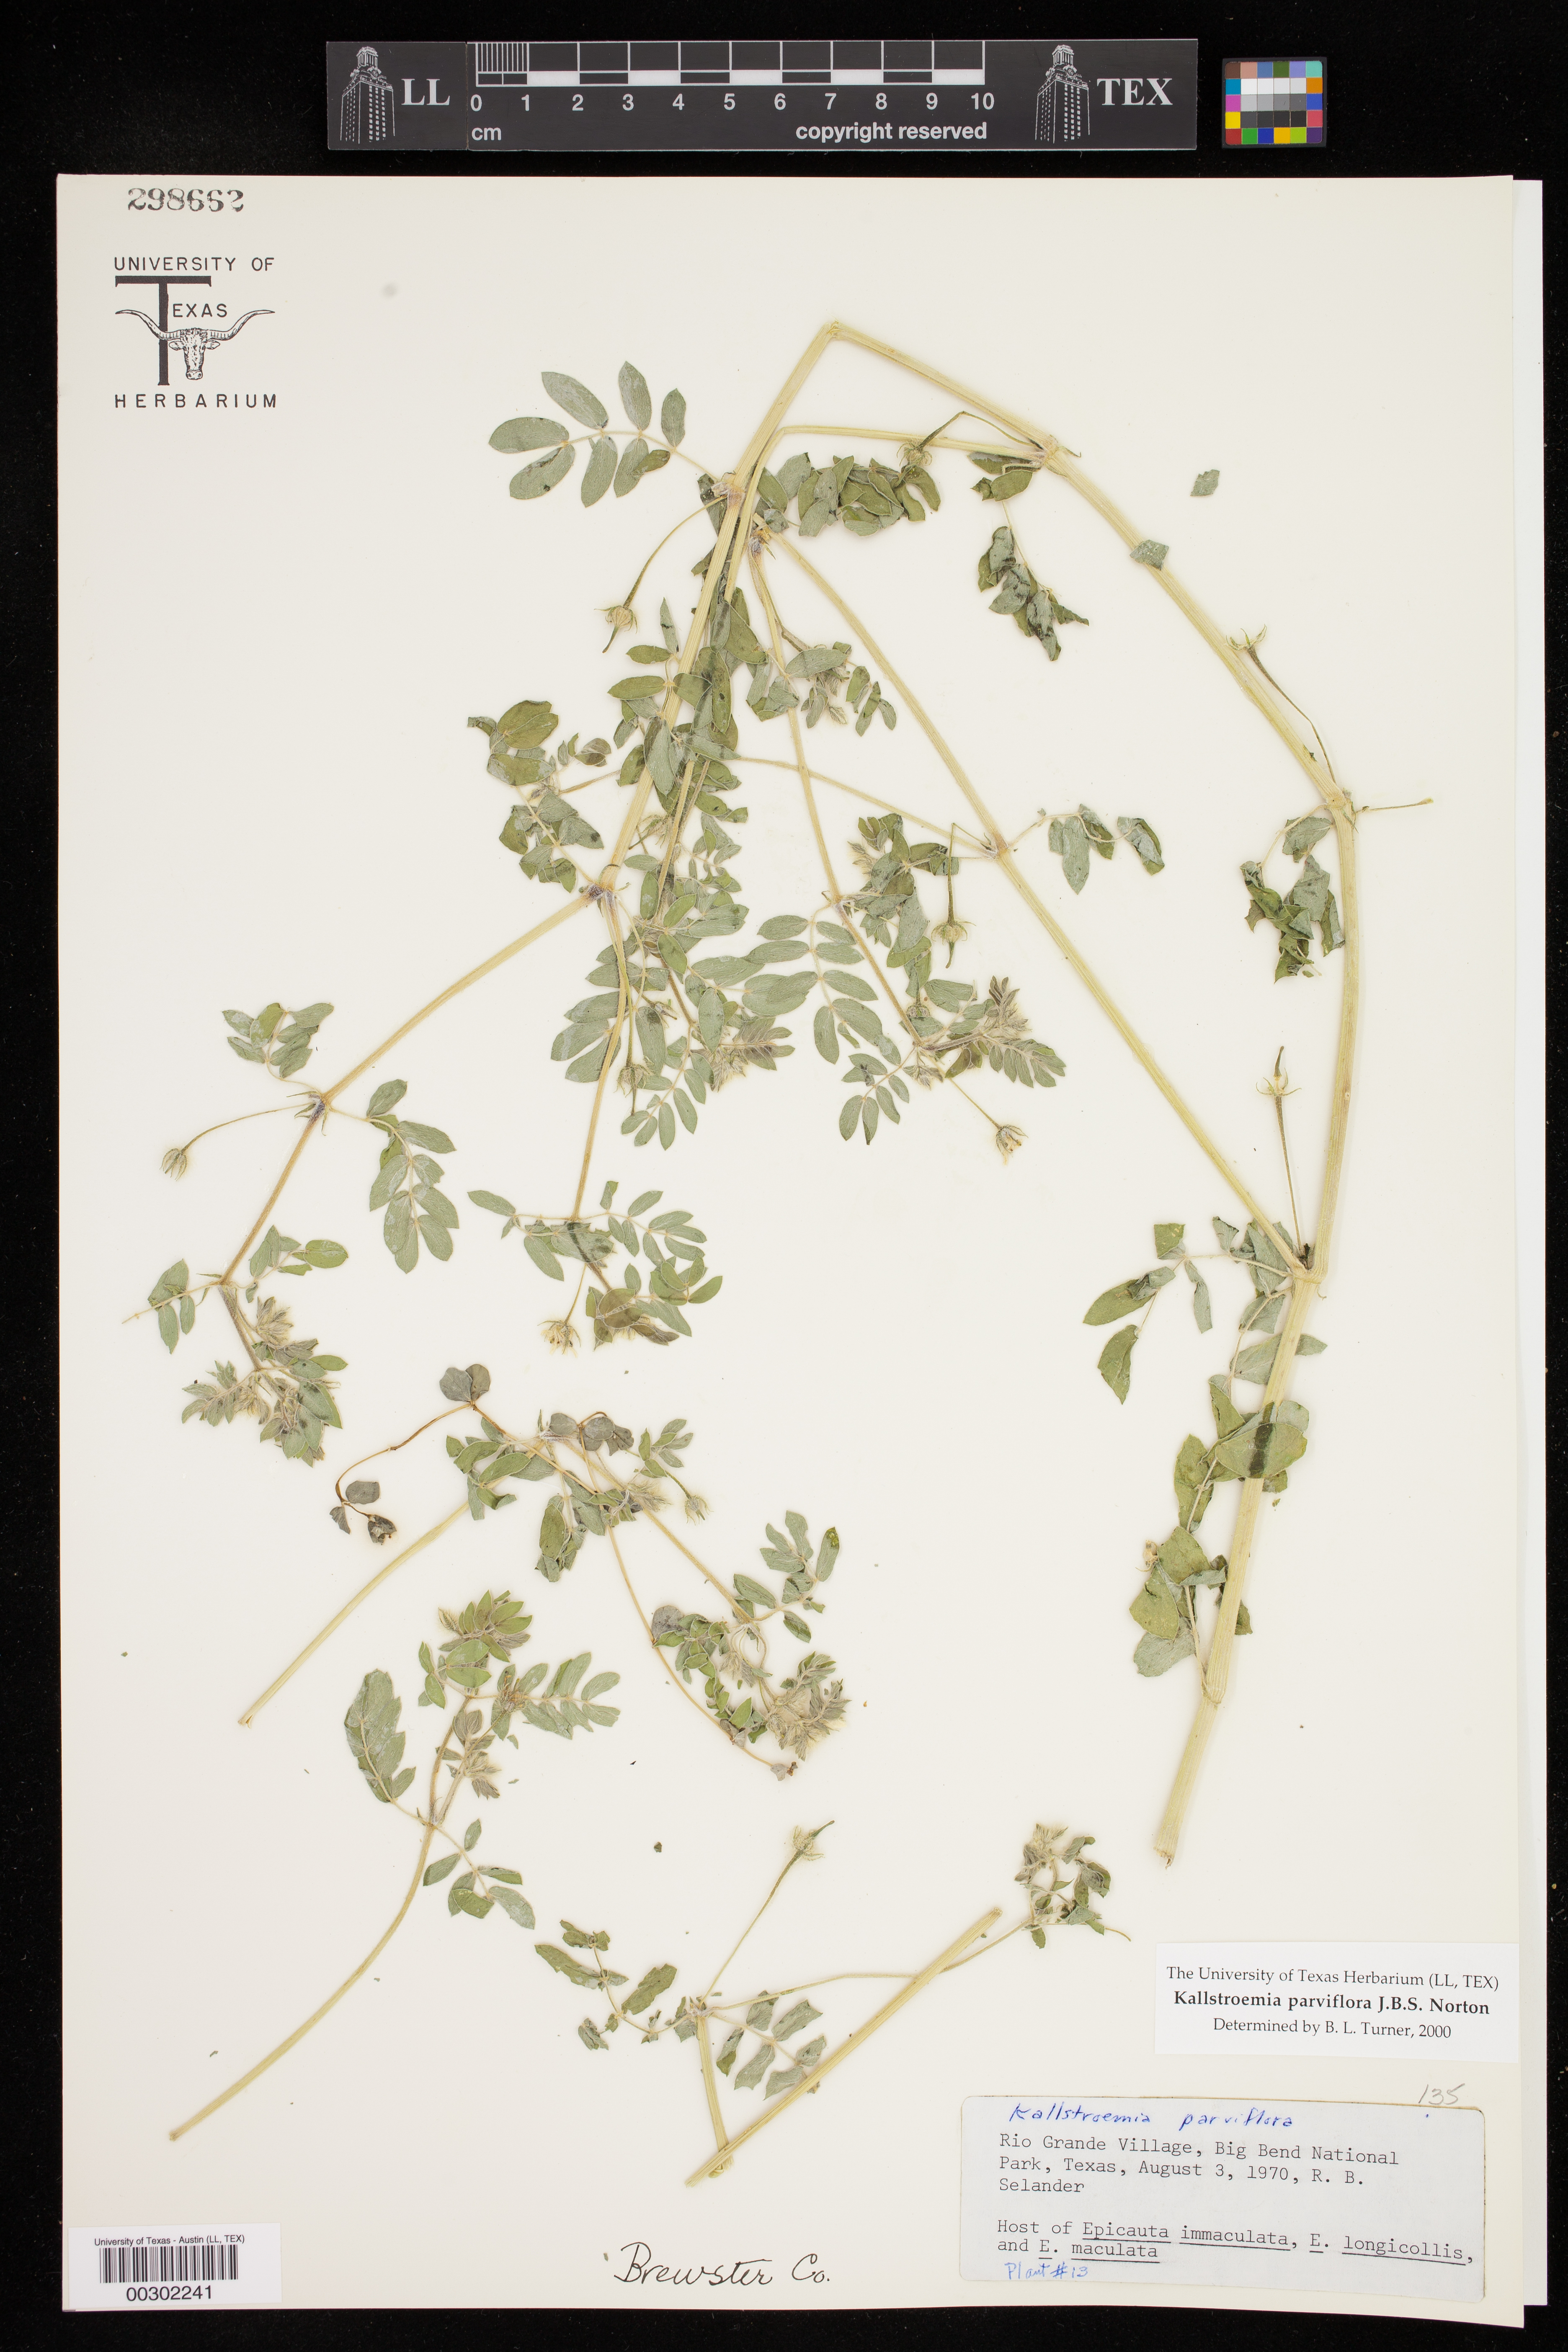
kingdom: Plantae
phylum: Tracheophyta
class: Magnoliopsida
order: Zygophyllales
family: Zygophyllaceae
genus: Kallstroemia
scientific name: Kallstroemia parviflora
